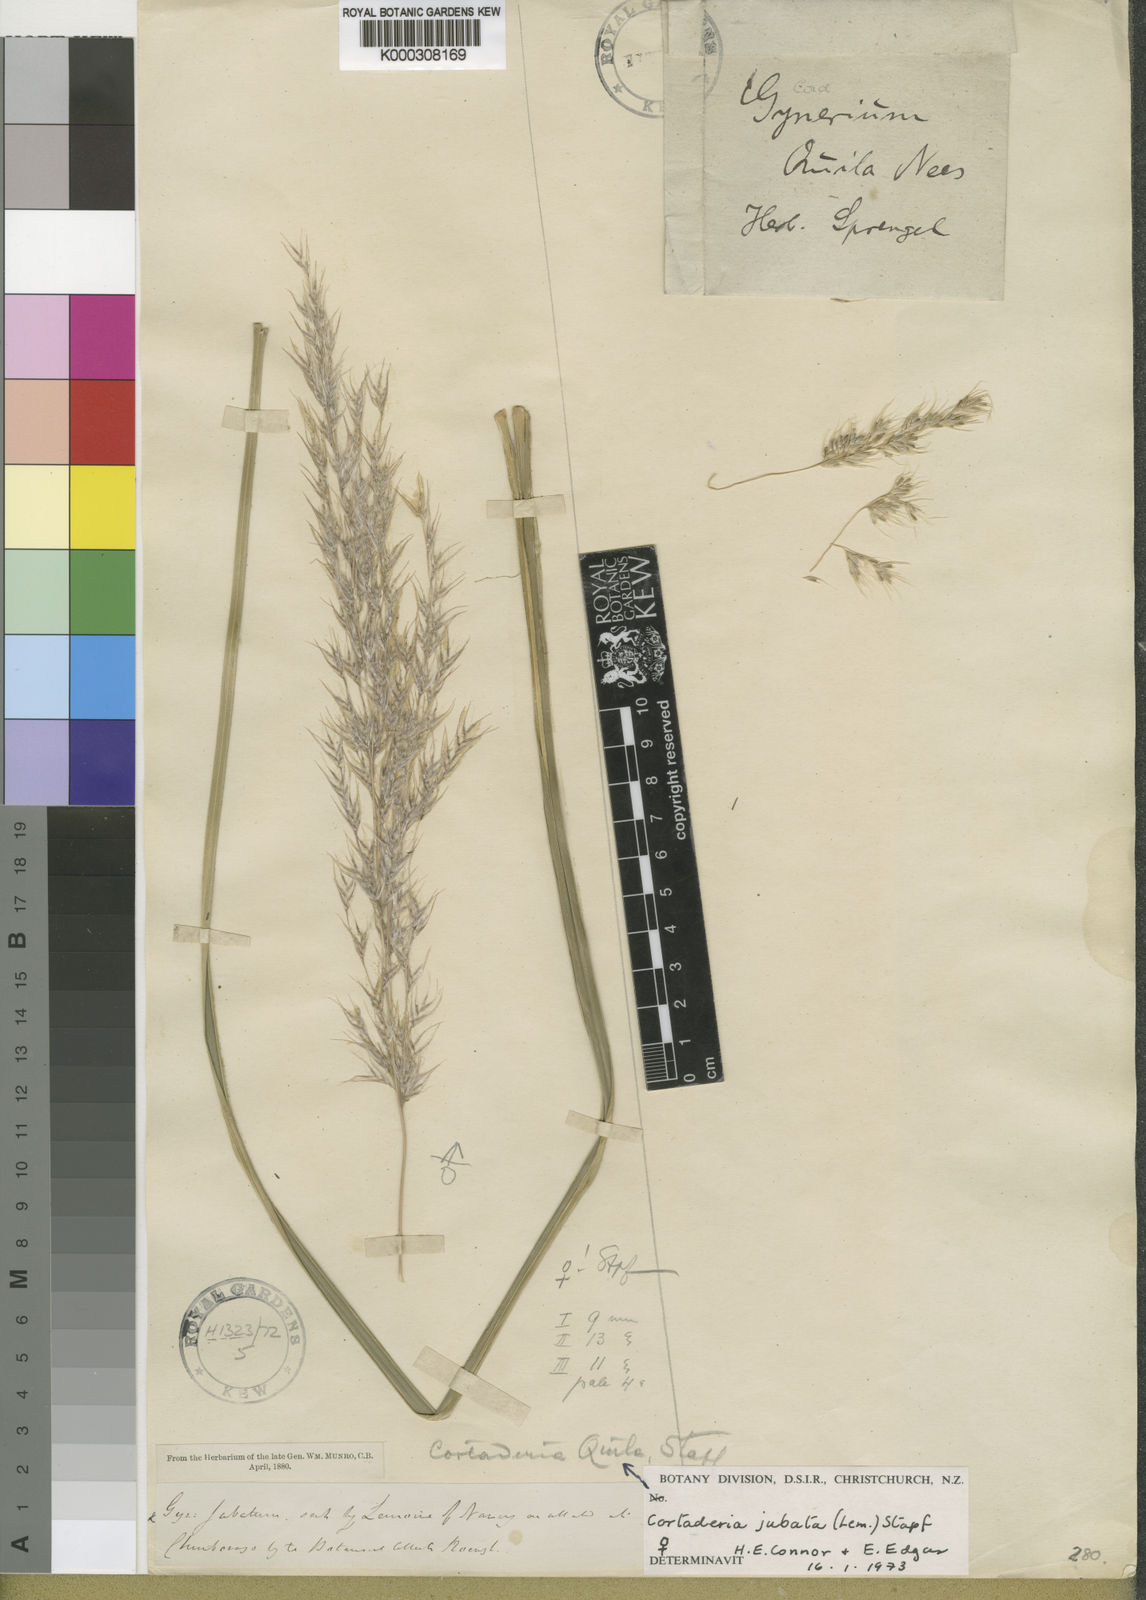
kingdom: Plantae
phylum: Tracheophyta
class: Liliopsida
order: Poales
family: Poaceae
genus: Cortaderia
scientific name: Cortaderia jubata
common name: Purple pampas grass
